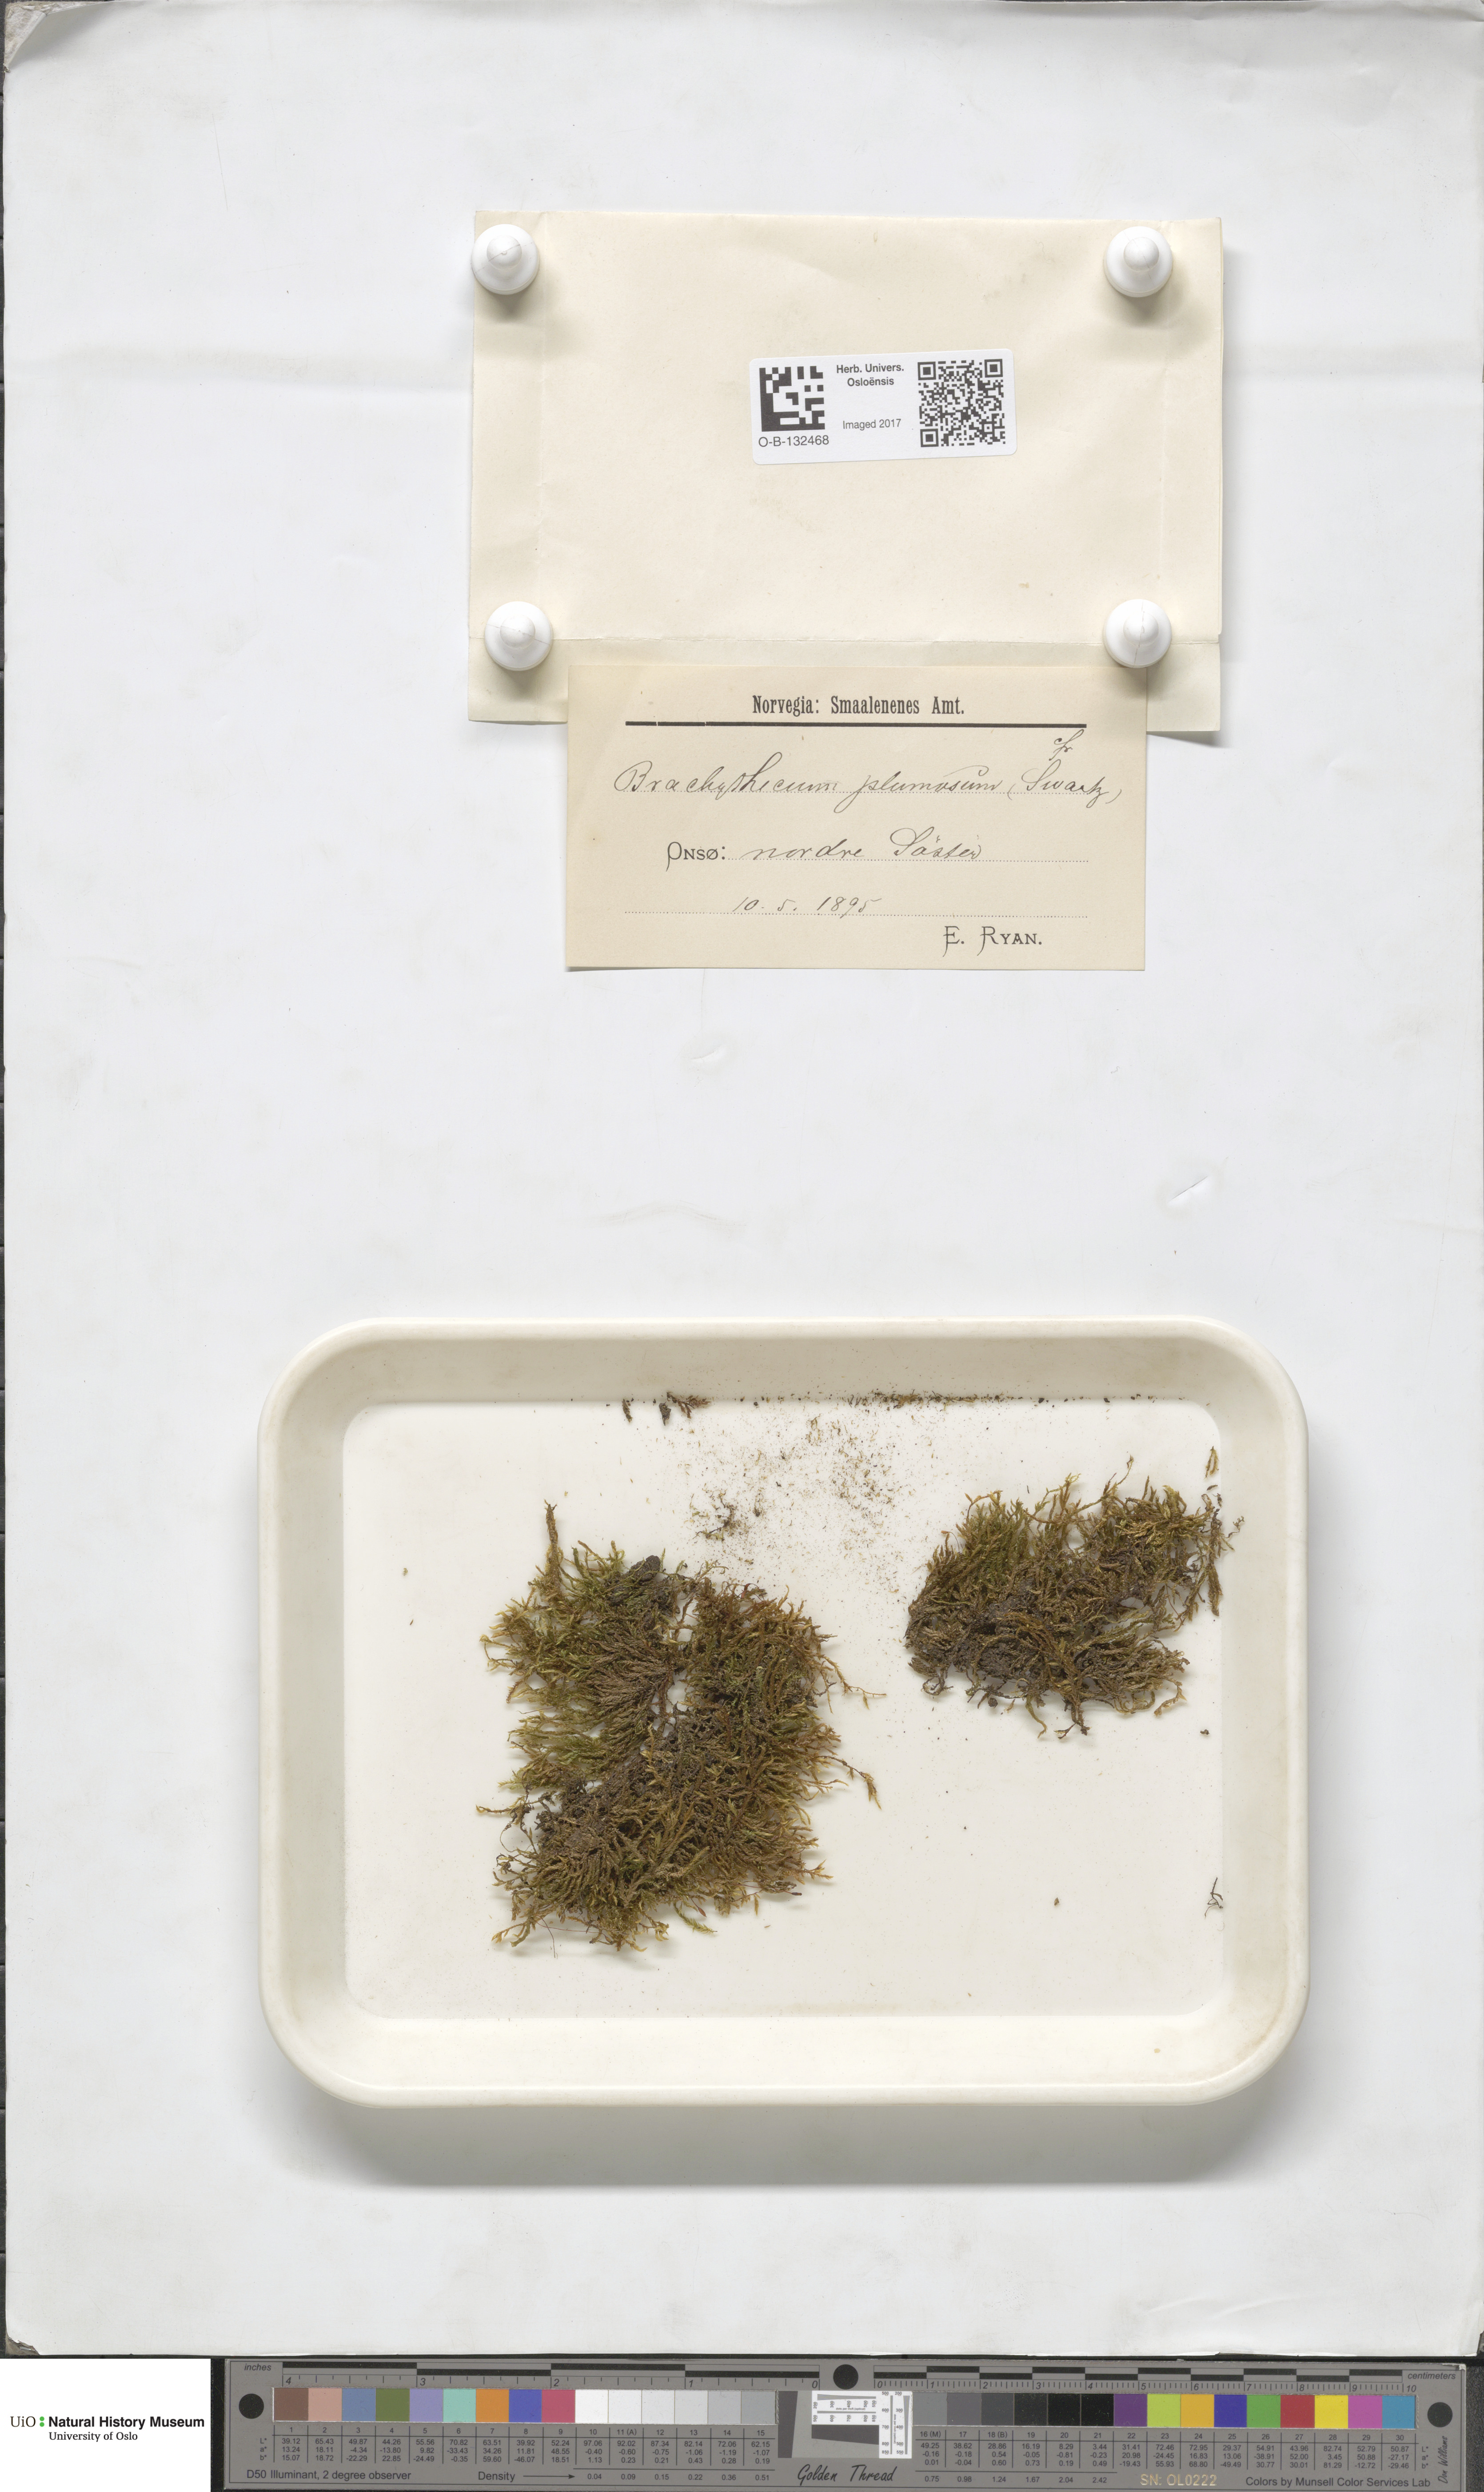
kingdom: Plantae
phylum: Bryophyta
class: Bryopsida
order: Hypnales
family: Brachytheciaceae
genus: Sciuro-hypnum
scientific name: Sciuro-hypnum plumosum
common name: Rusty feather-moss
